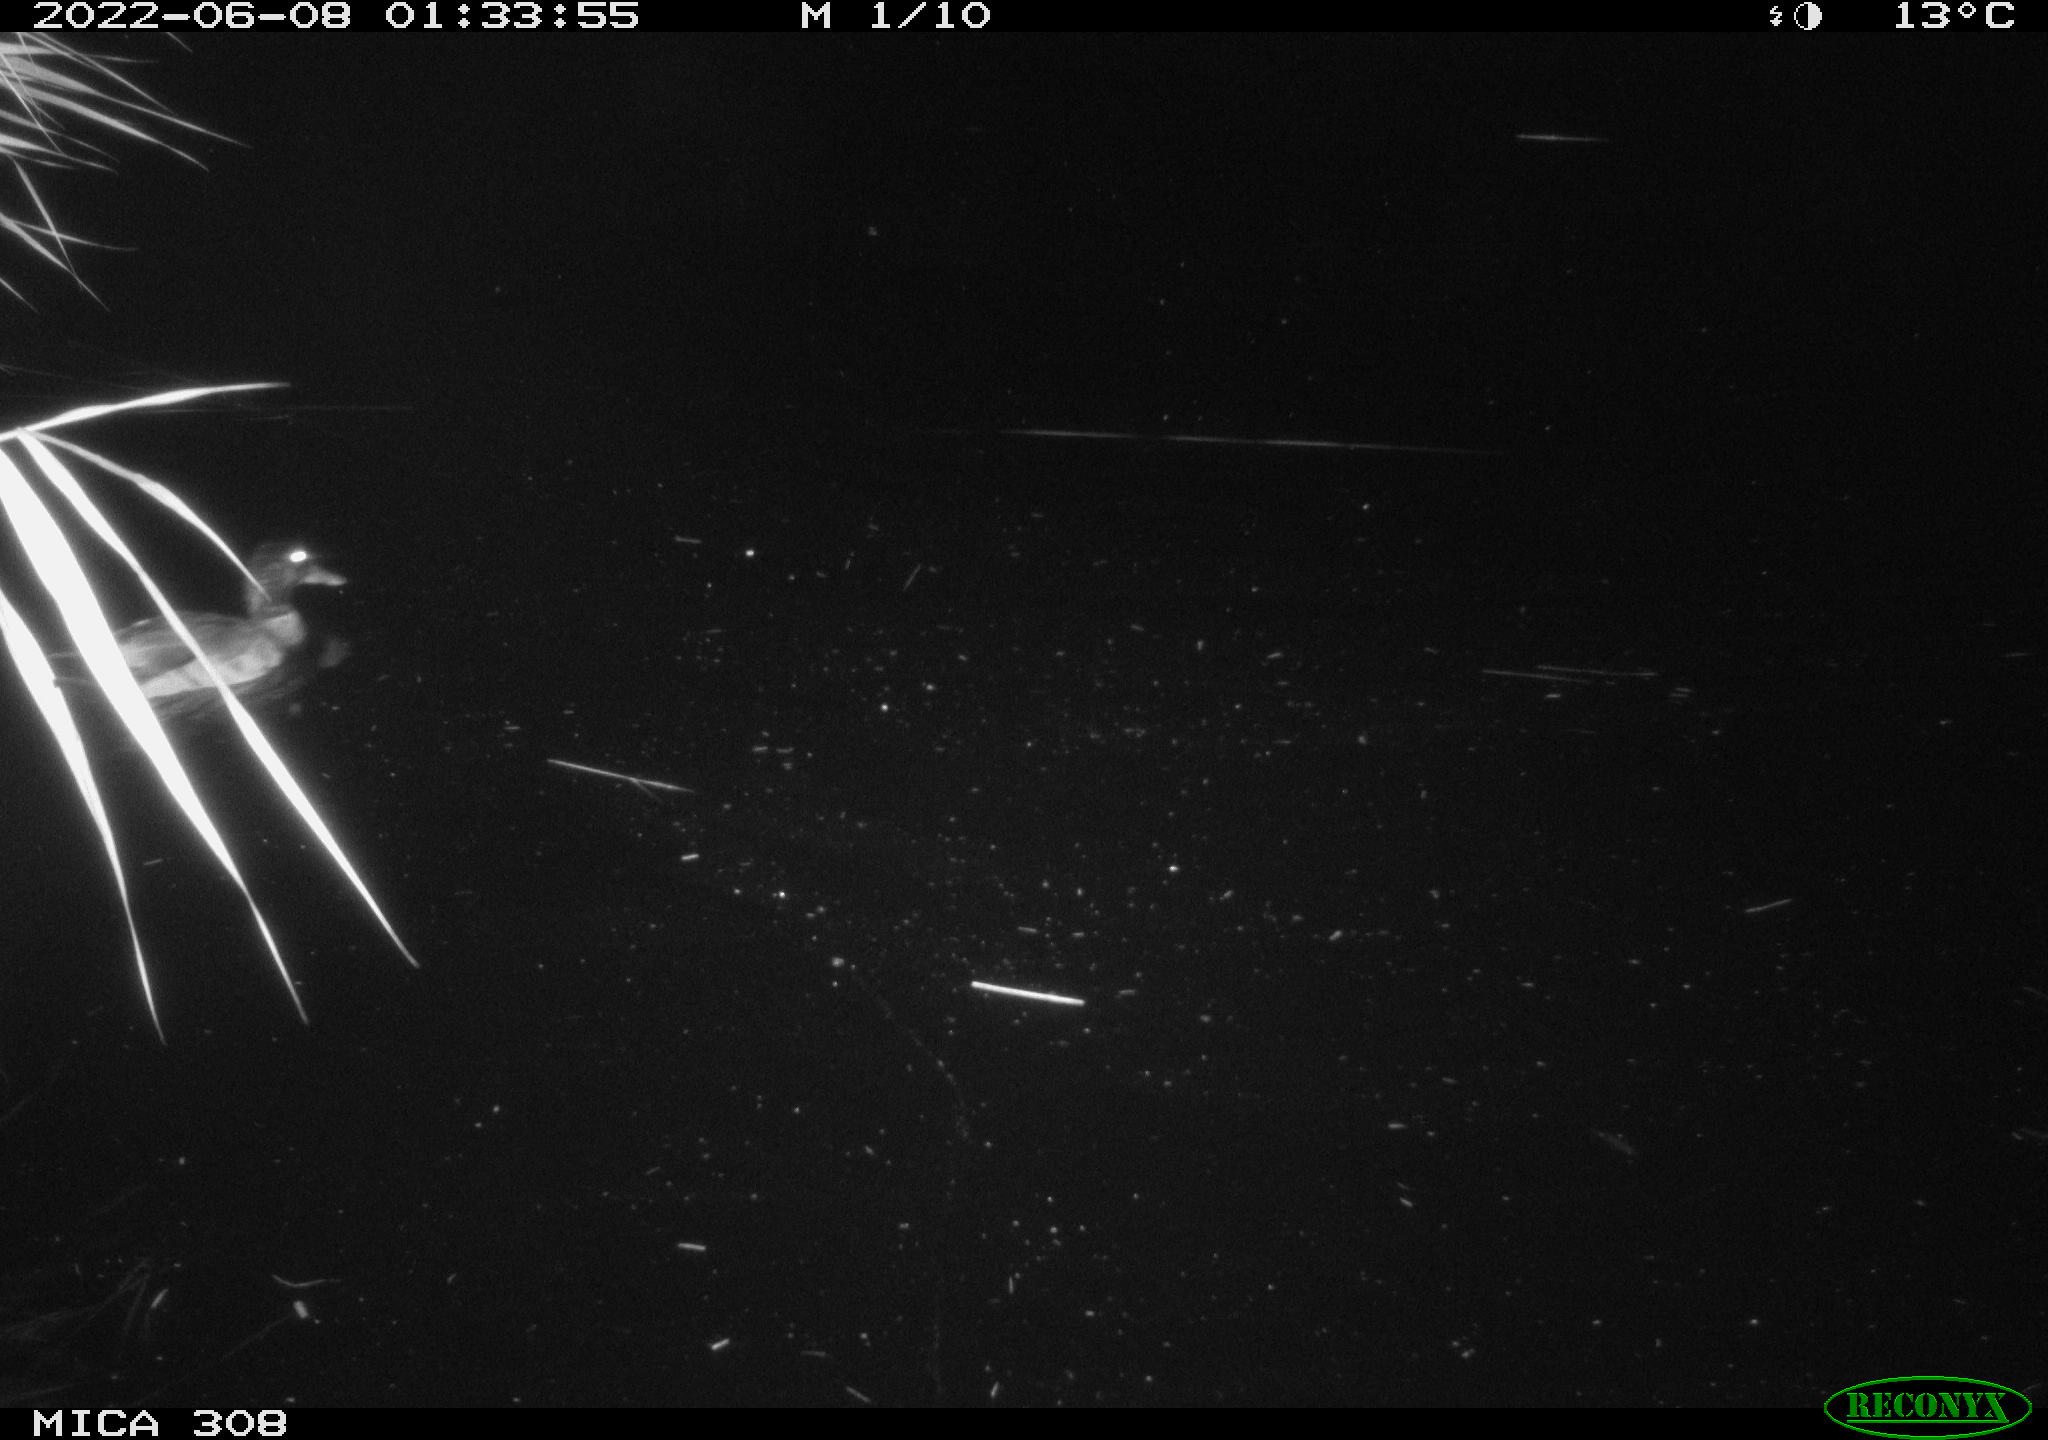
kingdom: Animalia
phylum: Chordata
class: Aves
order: Anseriformes
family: Anatidae
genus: Anas
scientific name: Anas platyrhynchos
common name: Mallard
